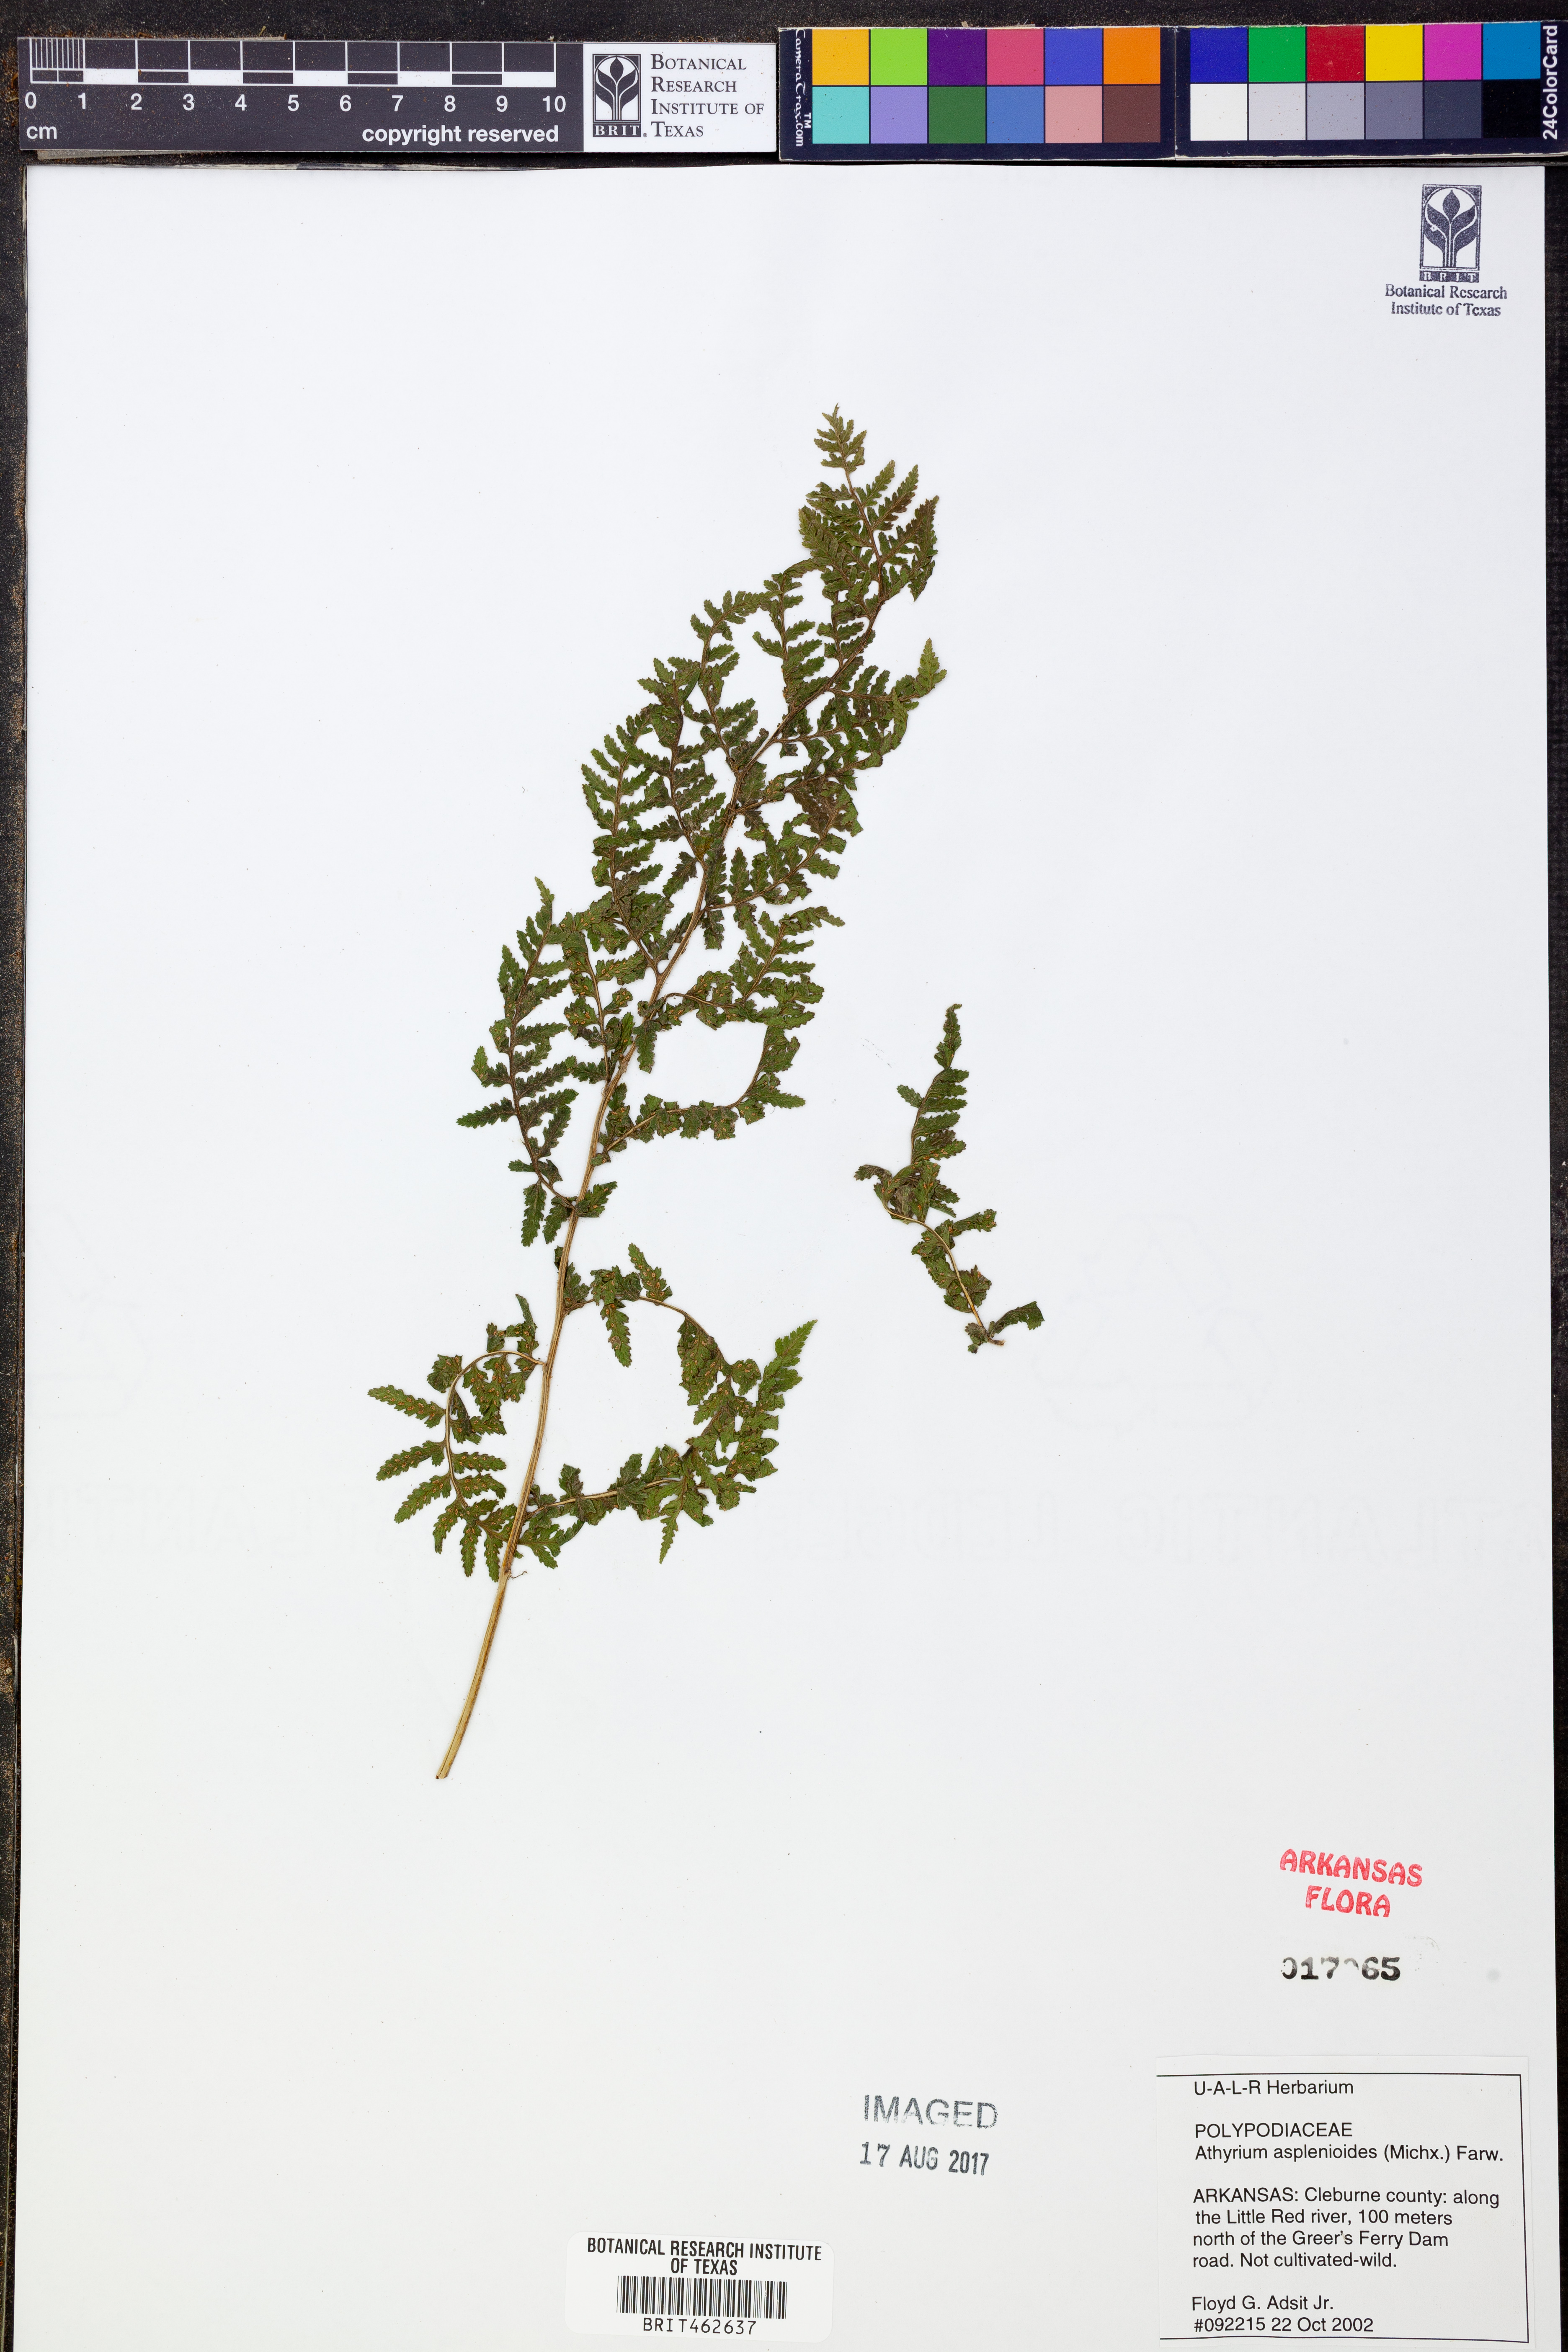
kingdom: Plantae
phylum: Tracheophyta
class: Polypodiopsida
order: Polypodiales
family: Athyriaceae
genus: Athyrium
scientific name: Athyrium asplenioides
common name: Southern lady fern
